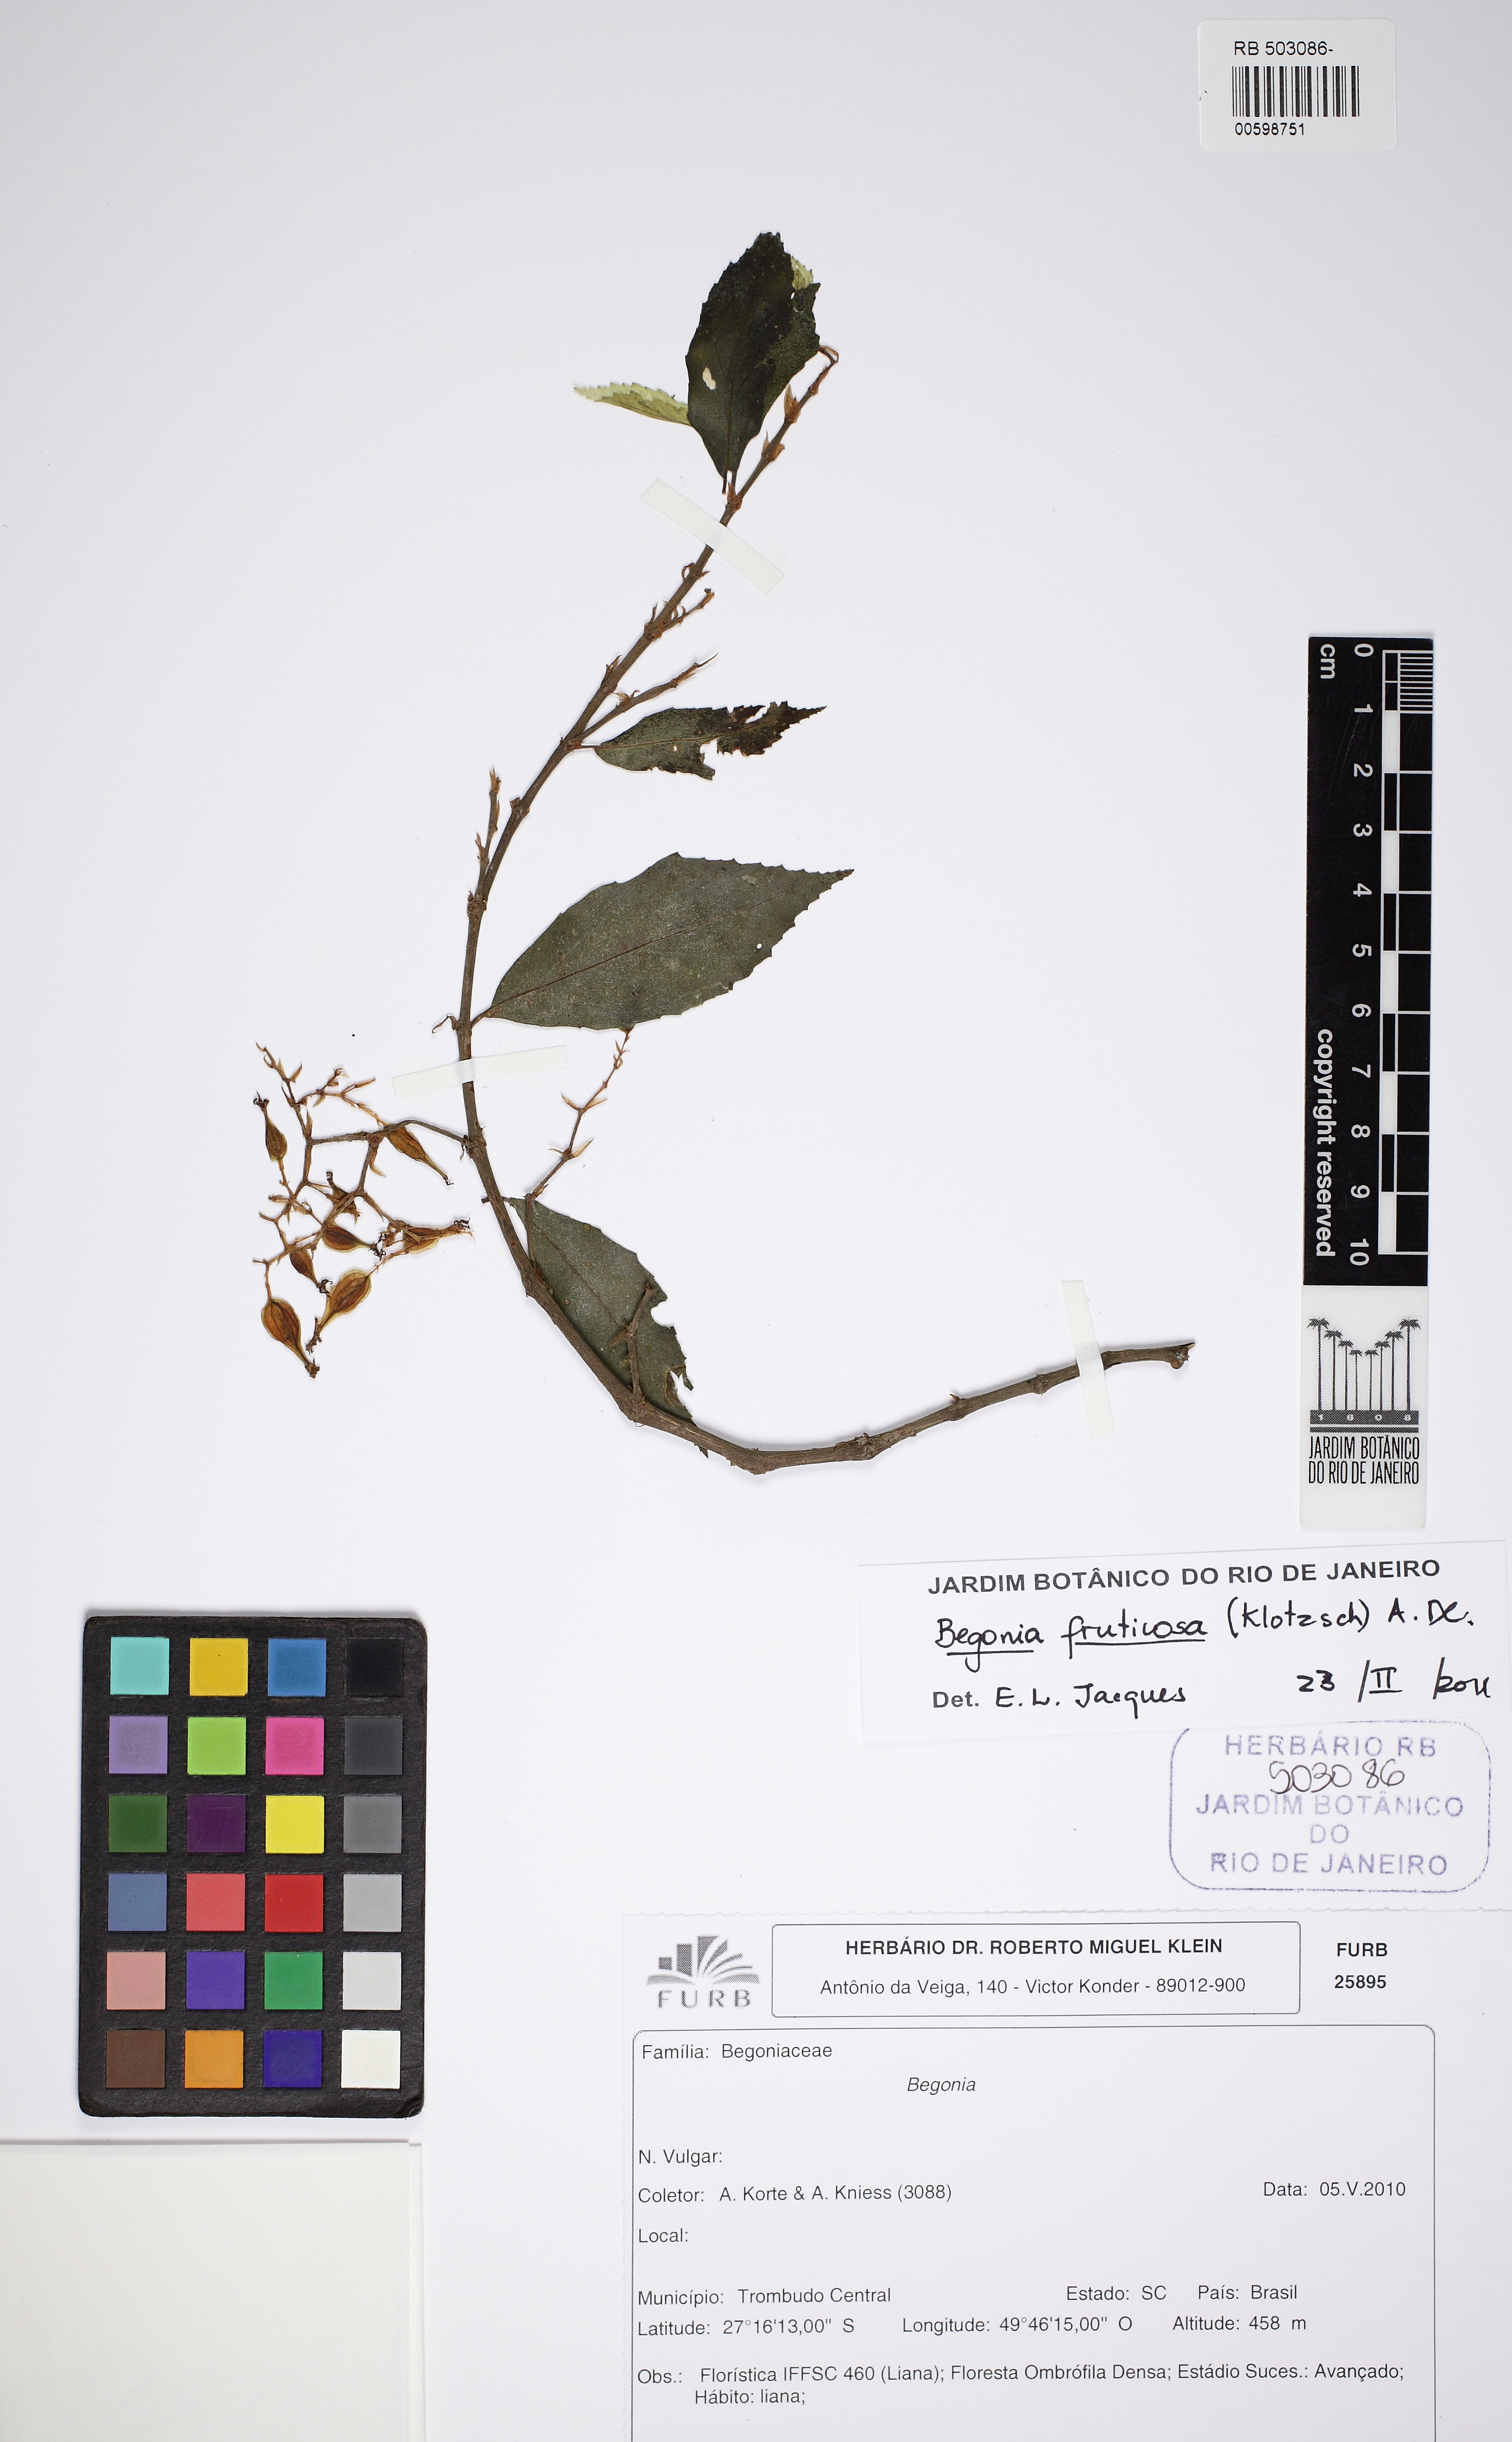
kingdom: Plantae
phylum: Tracheophyta
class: Magnoliopsida
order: Cucurbitales
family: Begoniaceae
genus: Begonia
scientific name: Begonia fruticosa
